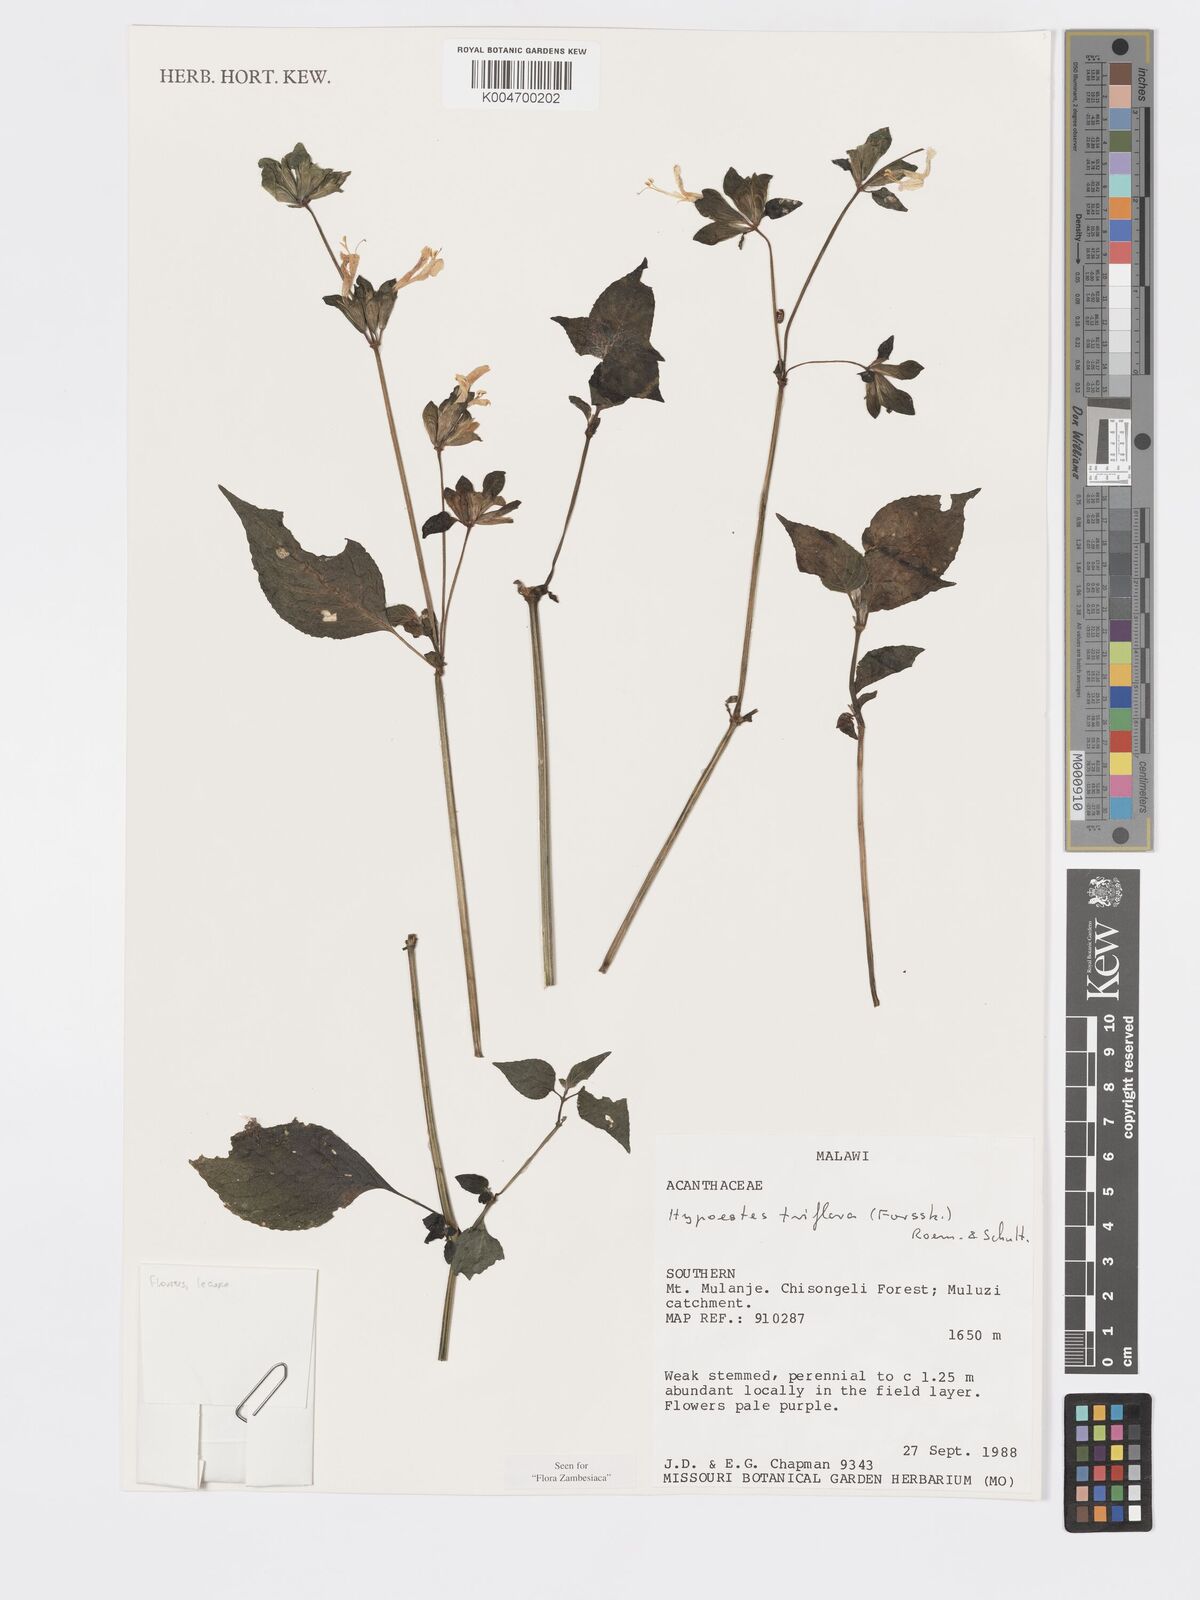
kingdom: Plantae
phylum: Tracheophyta
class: Magnoliopsida
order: Lamiales
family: Acanthaceae
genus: Hypoestes
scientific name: Hypoestes triflora
